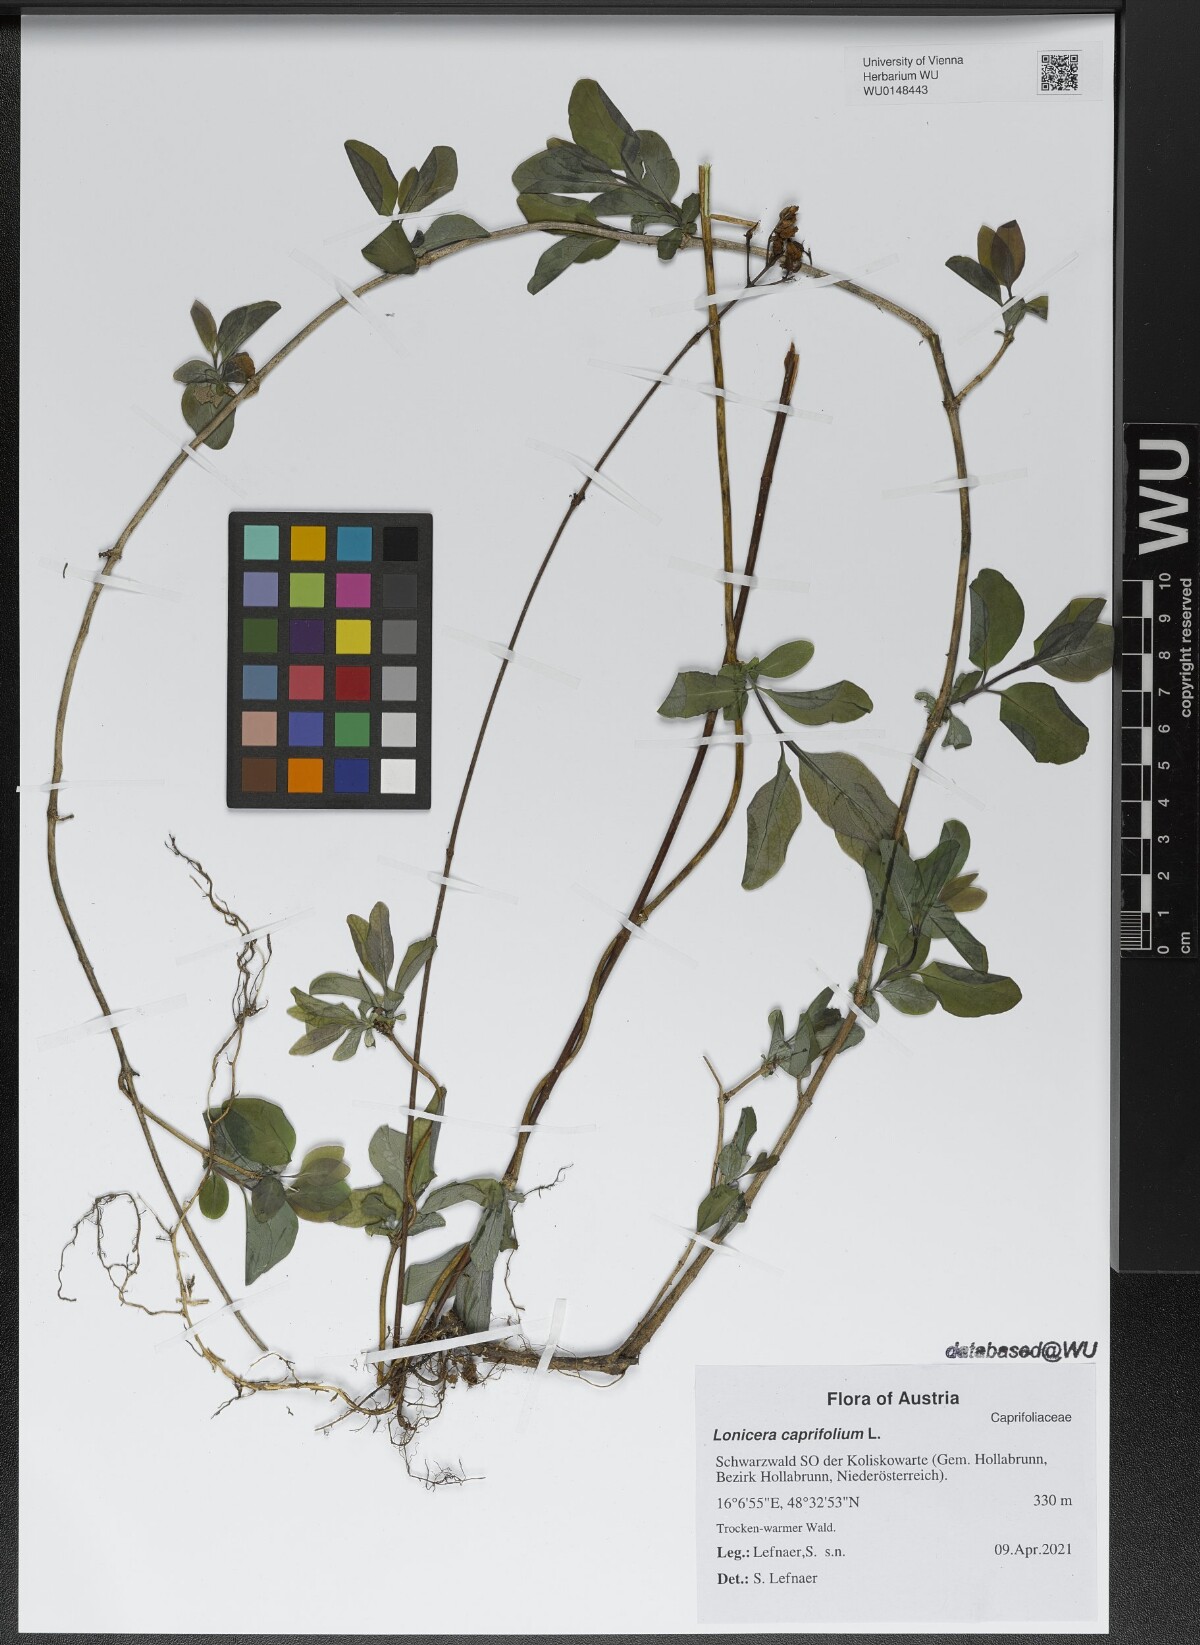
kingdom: Plantae
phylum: Tracheophyta
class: Magnoliopsida
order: Dipsacales
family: Caprifoliaceae
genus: Lonicera
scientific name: Lonicera caprifolium
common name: Perfoliate honeysuckle
